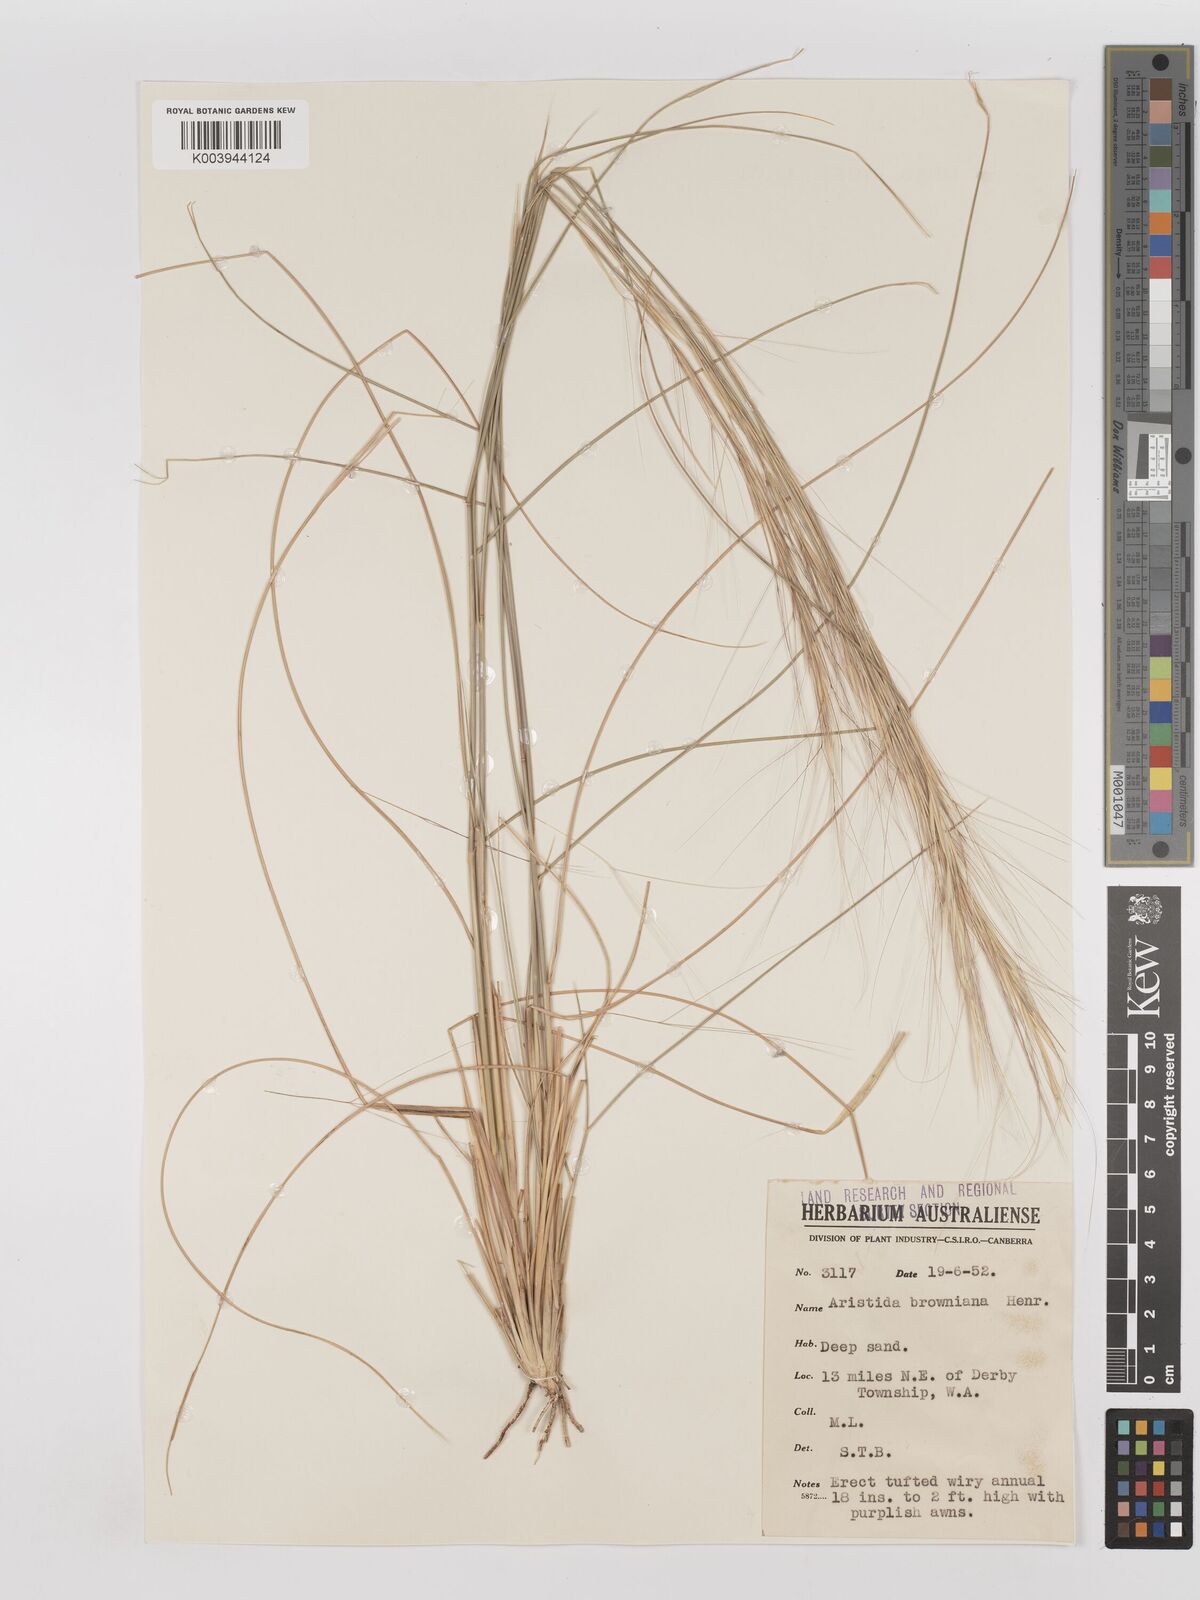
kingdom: Plantae
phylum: Tracheophyta
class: Liliopsida
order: Poales
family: Poaceae
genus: Aristida
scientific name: Aristida holathera
